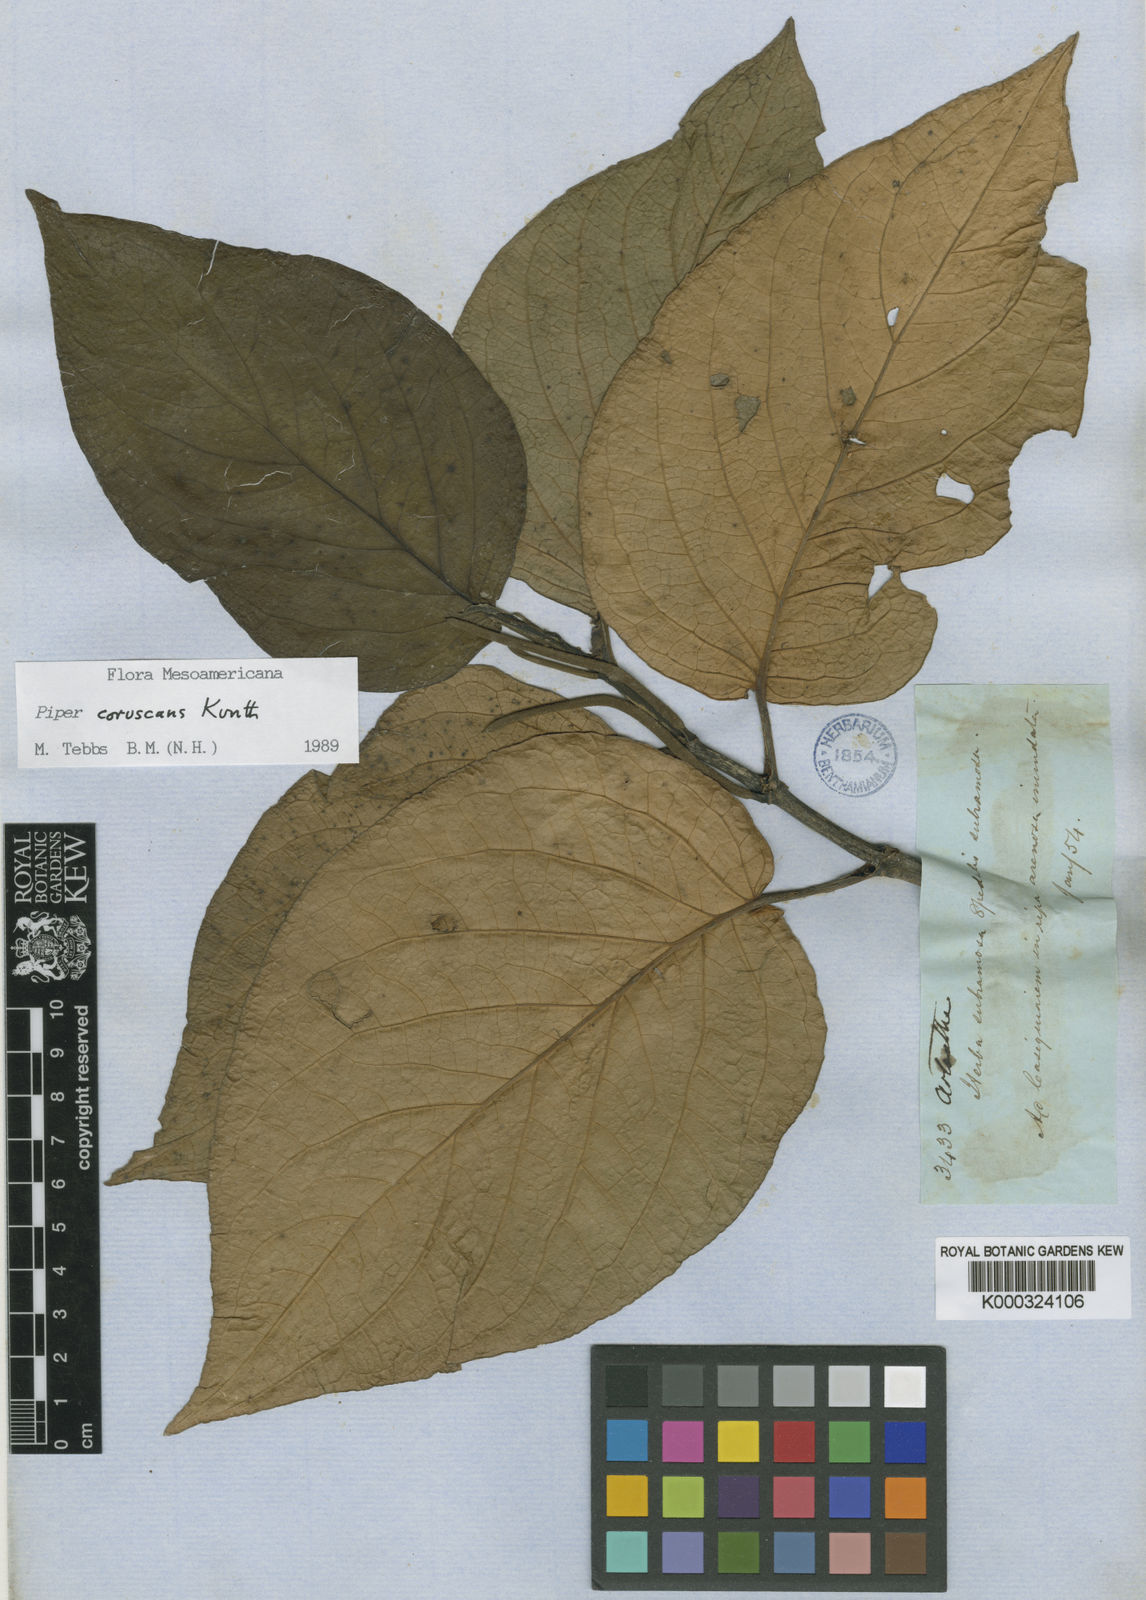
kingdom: Plantae
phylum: Tracheophyta
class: Magnoliopsida
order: Piperales
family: Piperaceae
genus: Piper
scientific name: Piper
